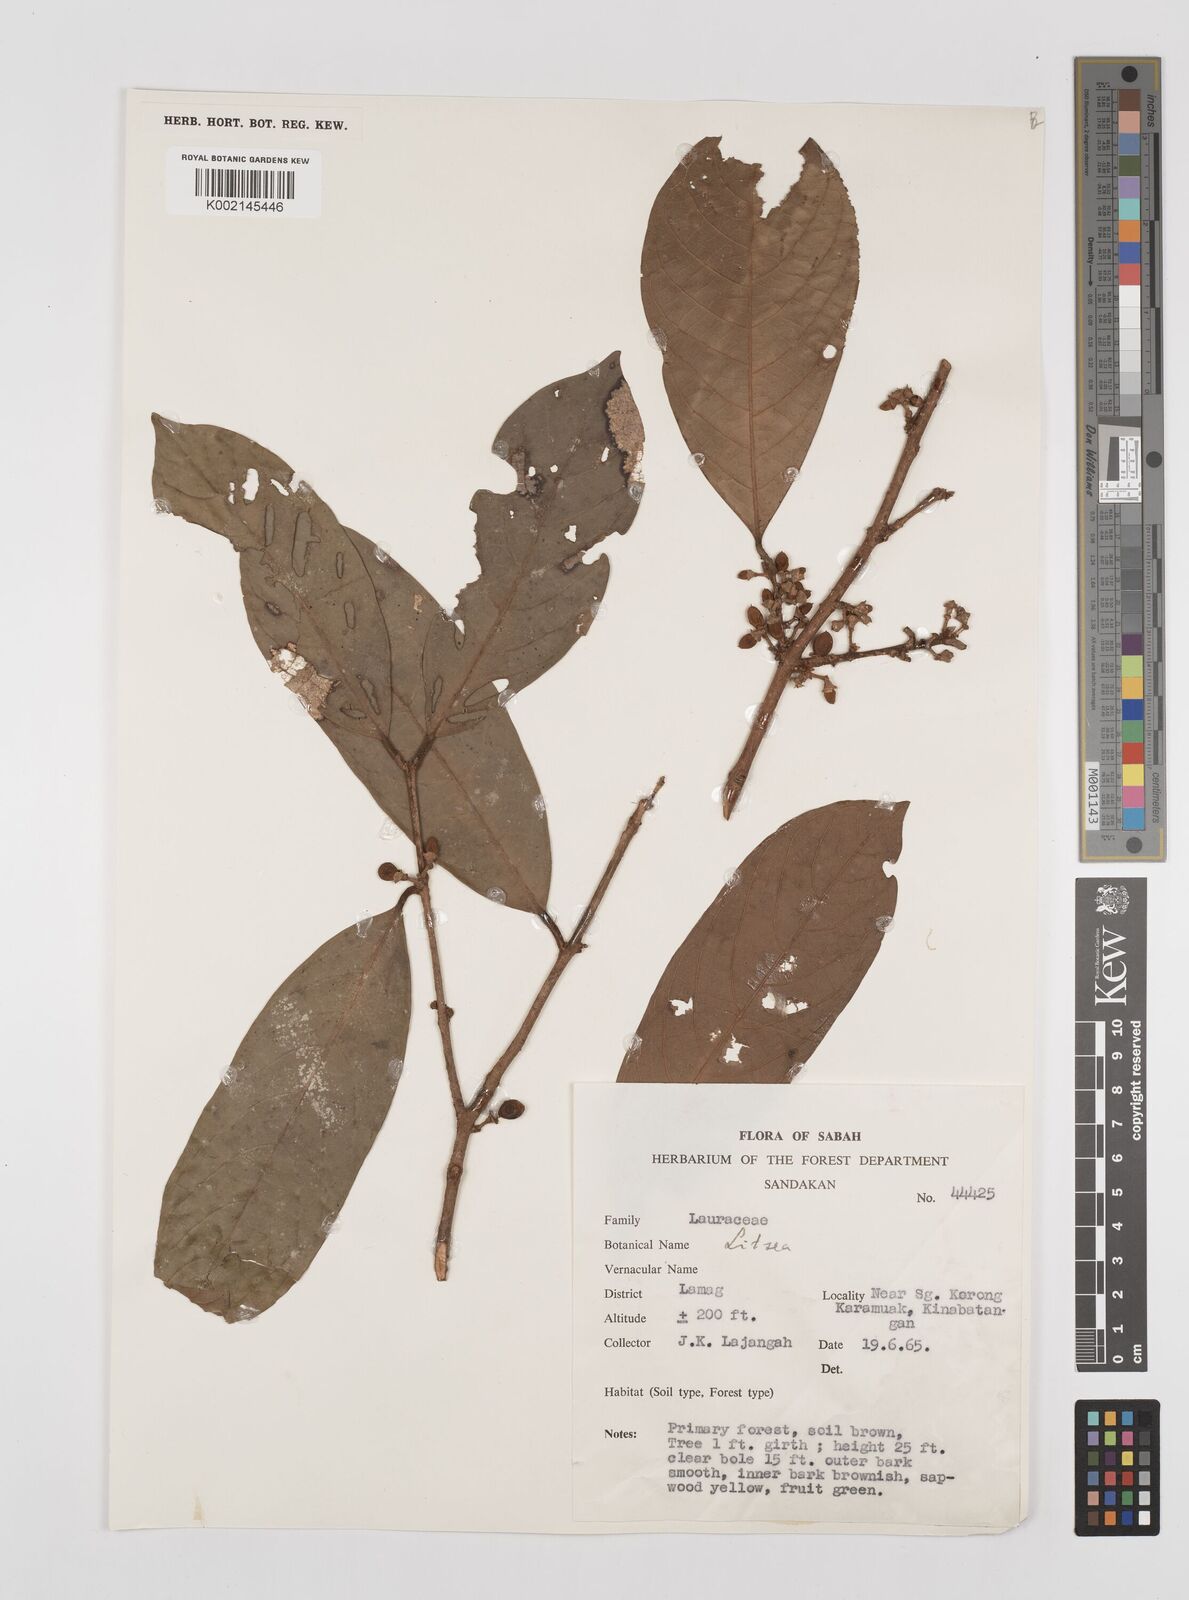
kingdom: Plantae
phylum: Tracheophyta
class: Magnoliopsida
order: Laurales
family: Lauraceae
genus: Litsea
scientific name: Litsea
